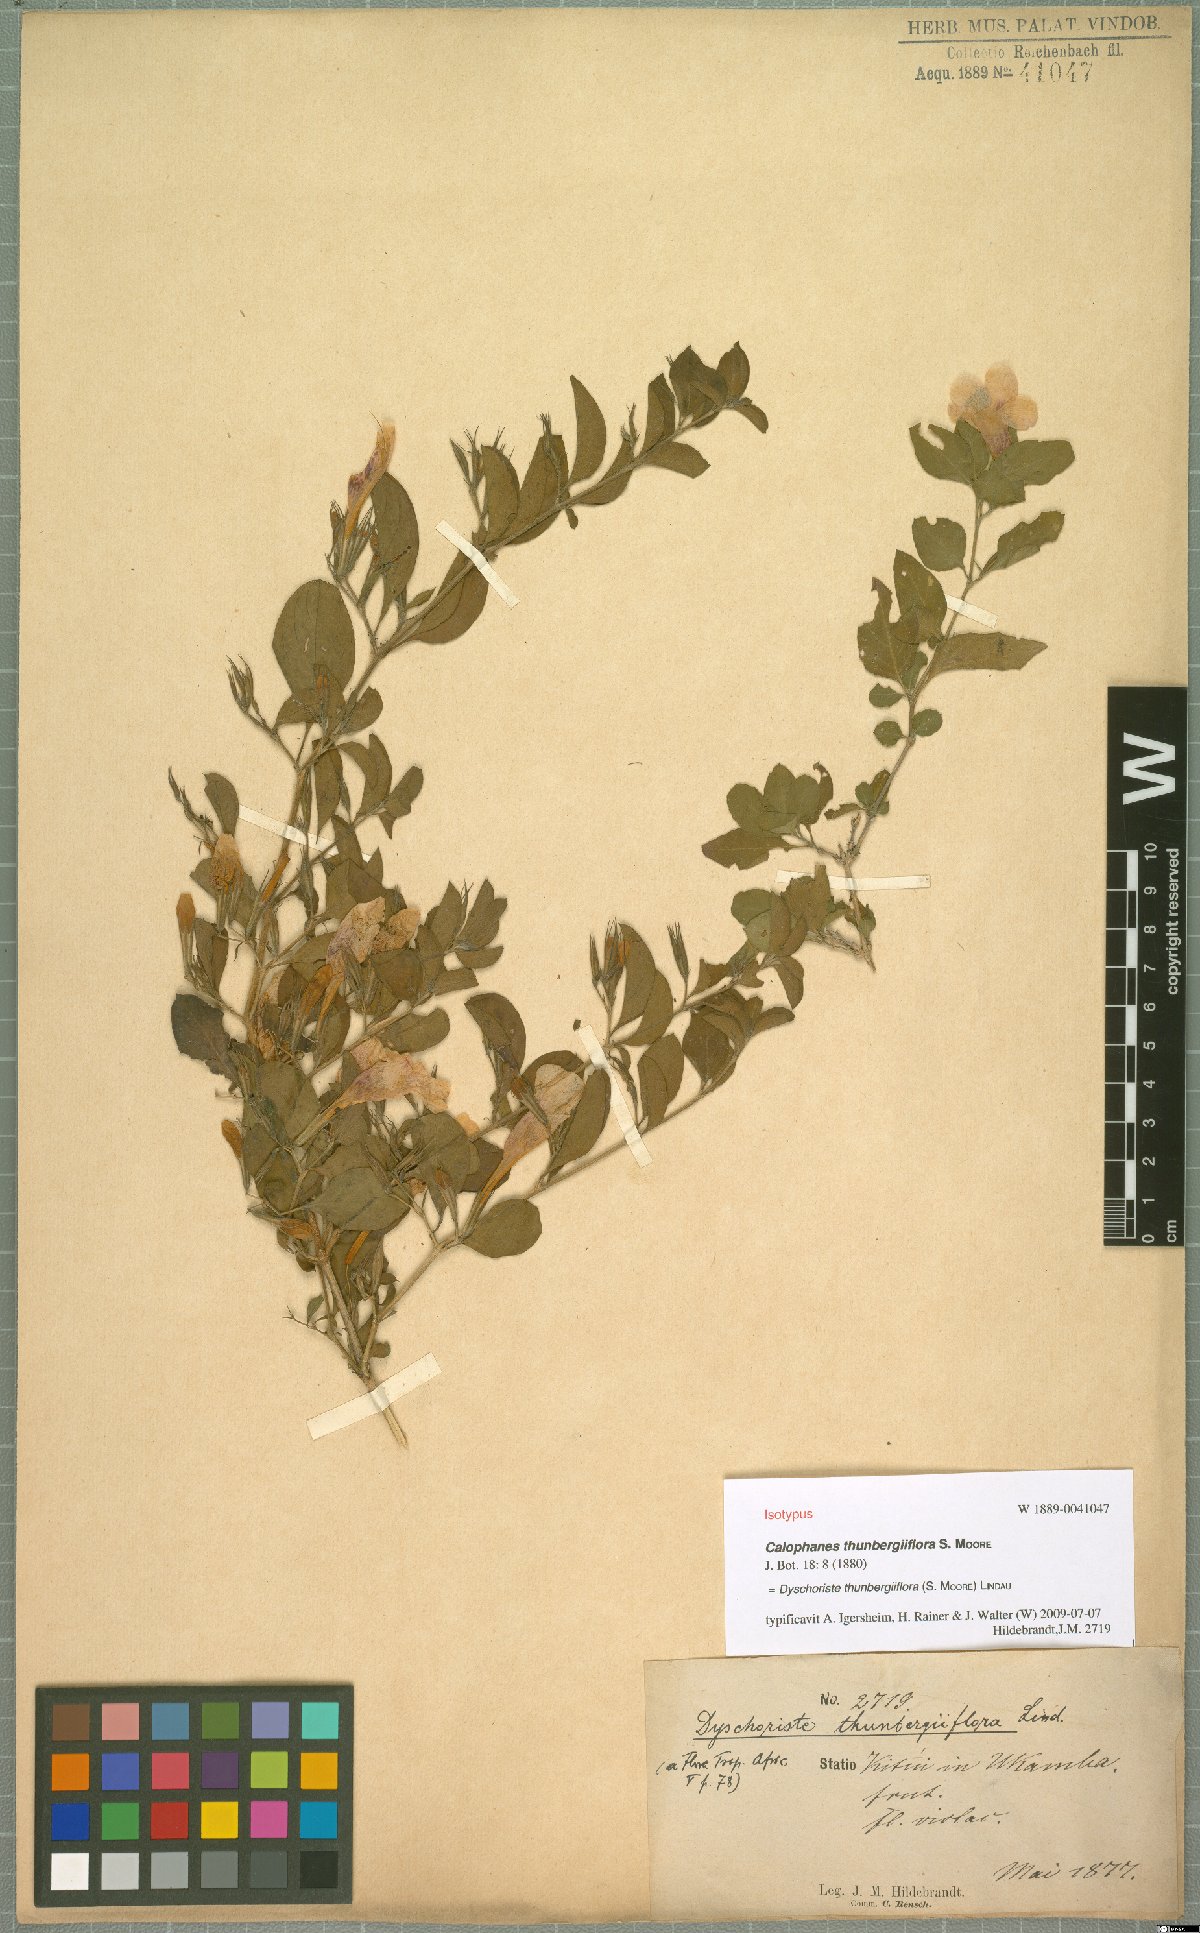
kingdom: Plantae
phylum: Tracheophyta
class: Magnoliopsida
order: Lamiales
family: Acanthaceae
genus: Dyschoriste
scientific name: Dyschoriste thunbergiiflora
